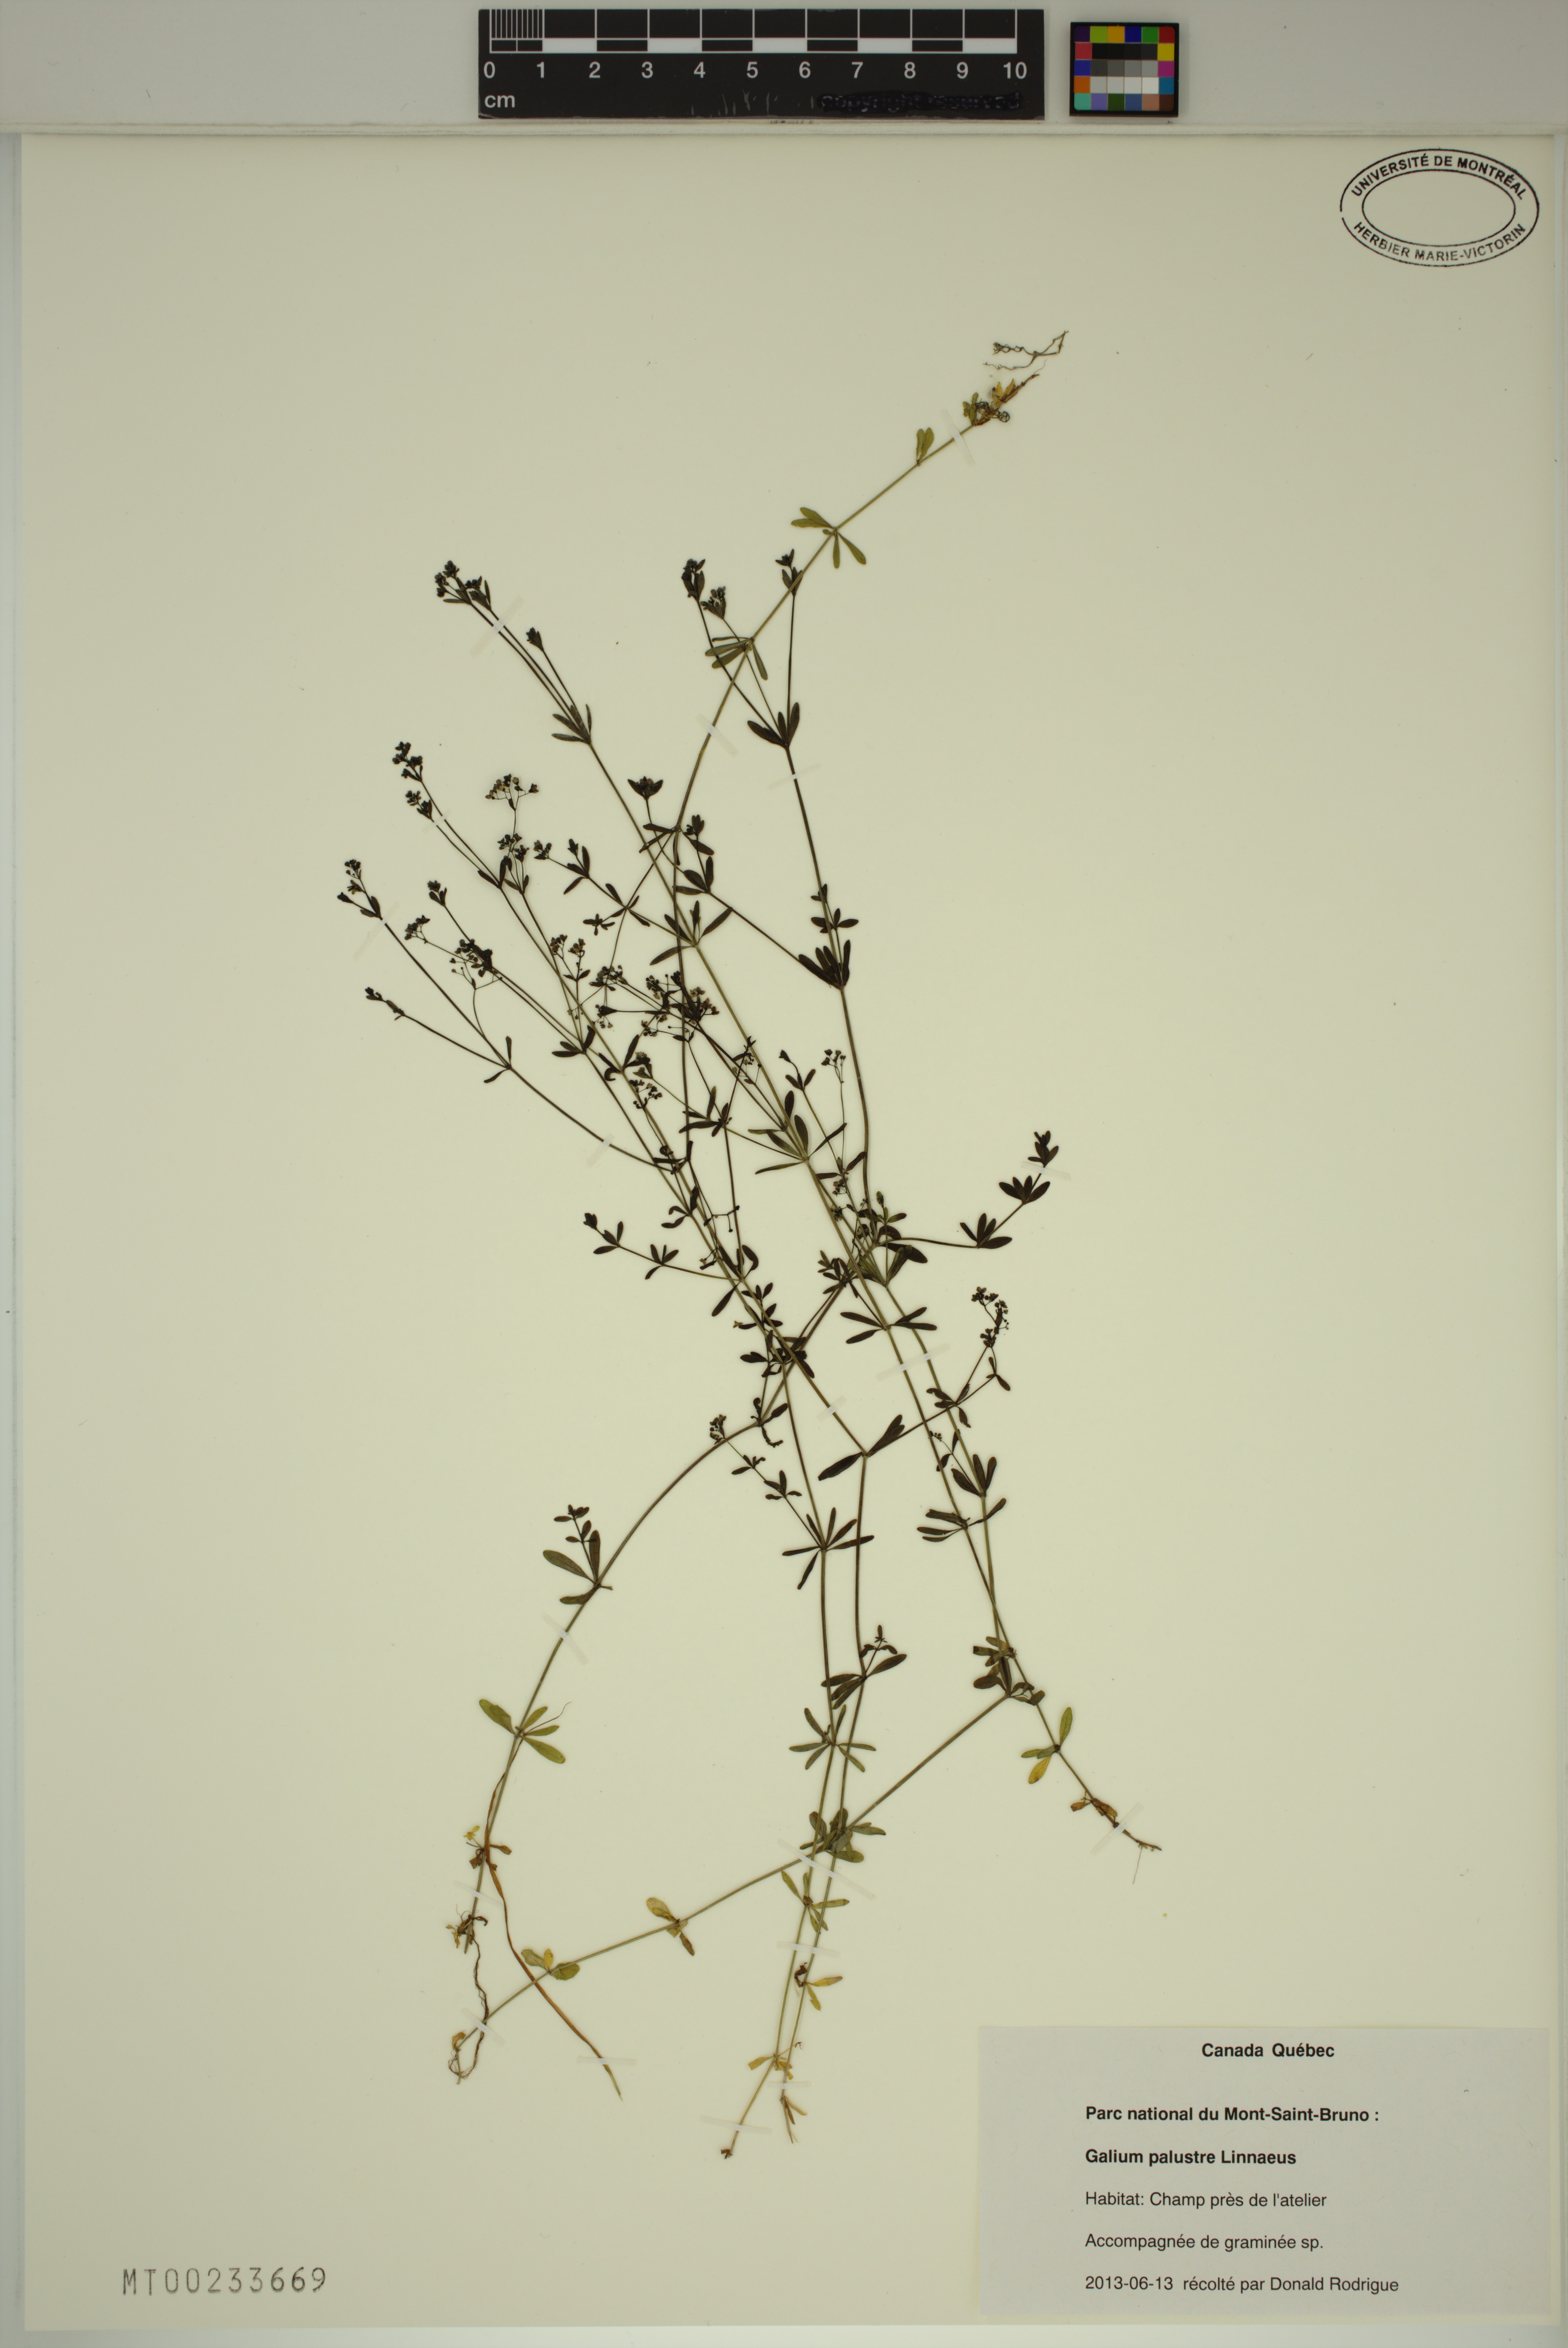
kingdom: Plantae
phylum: Tracheophyta
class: Magnoliopsida
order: Gentianales
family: Rubiaceae
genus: Galium
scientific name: Galium palustre
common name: Common marsh-bedstraw
